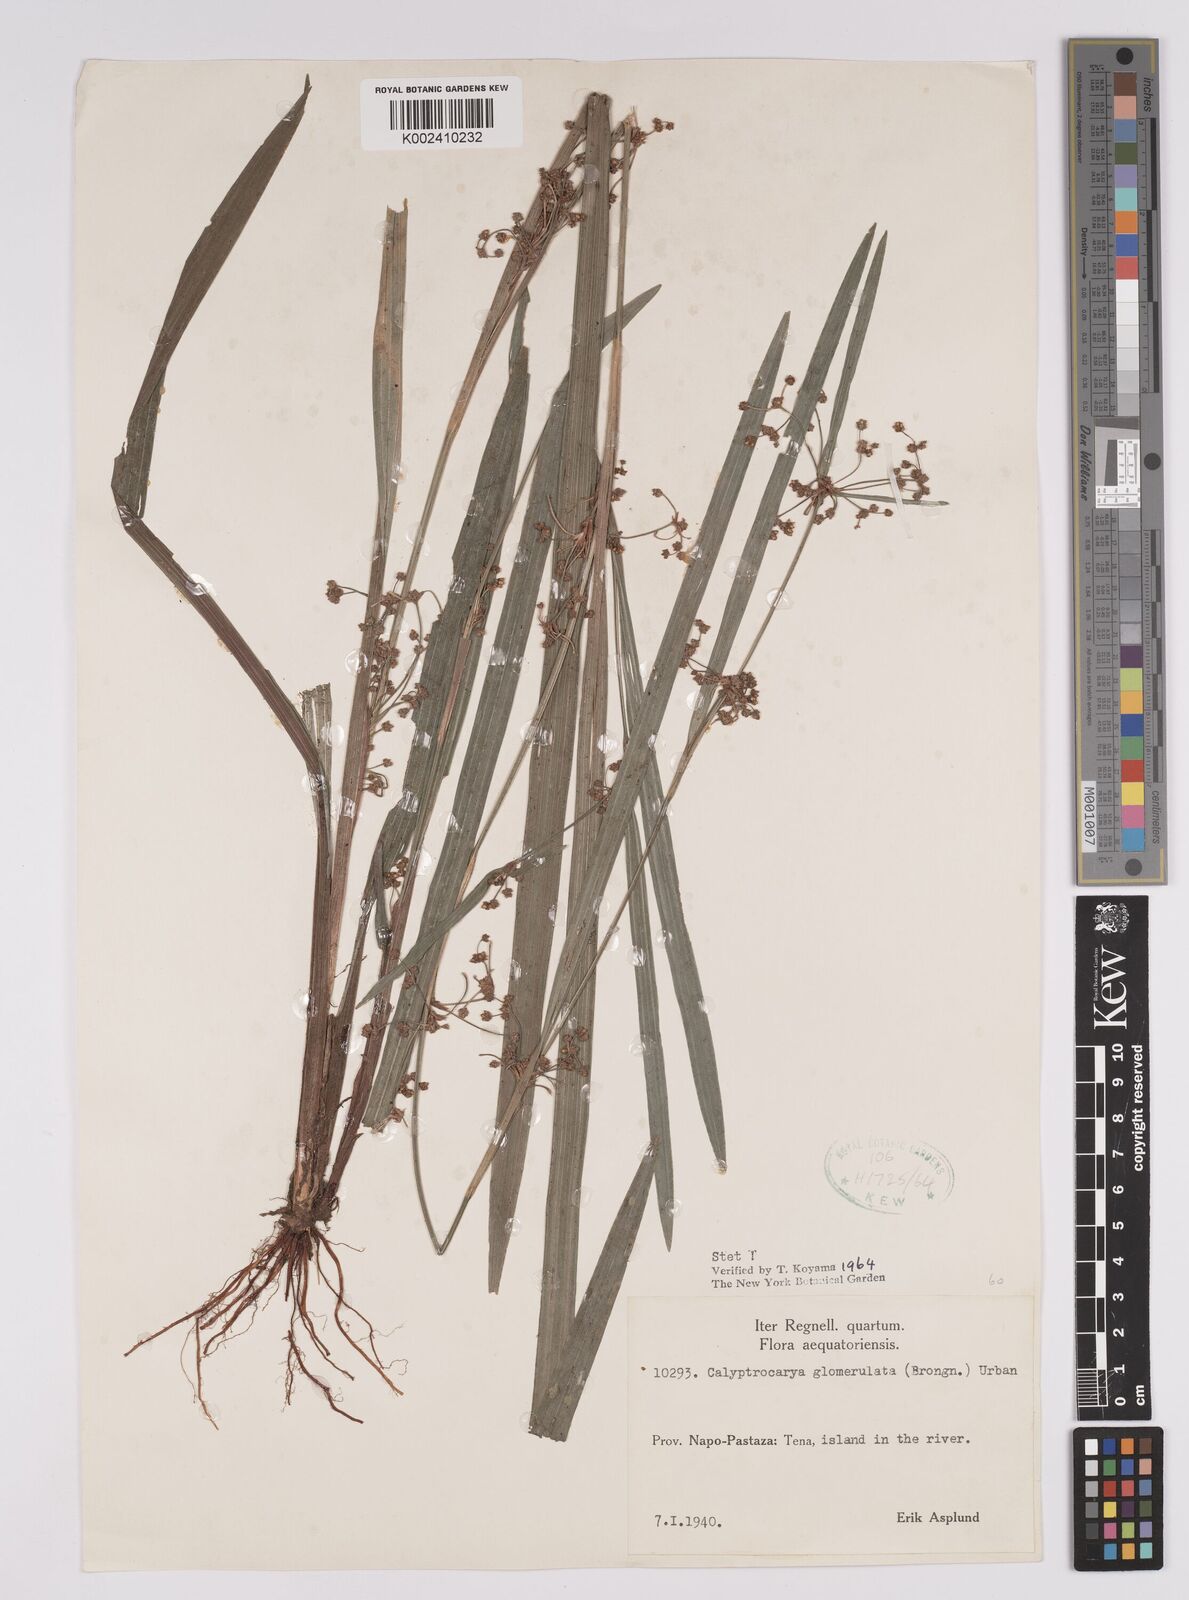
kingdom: Plantae
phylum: Tracheophyta
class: Liliopsida
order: Poales
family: Cyperaceae
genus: Calyptrocarya
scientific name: Calyptrocarya glomerulata
